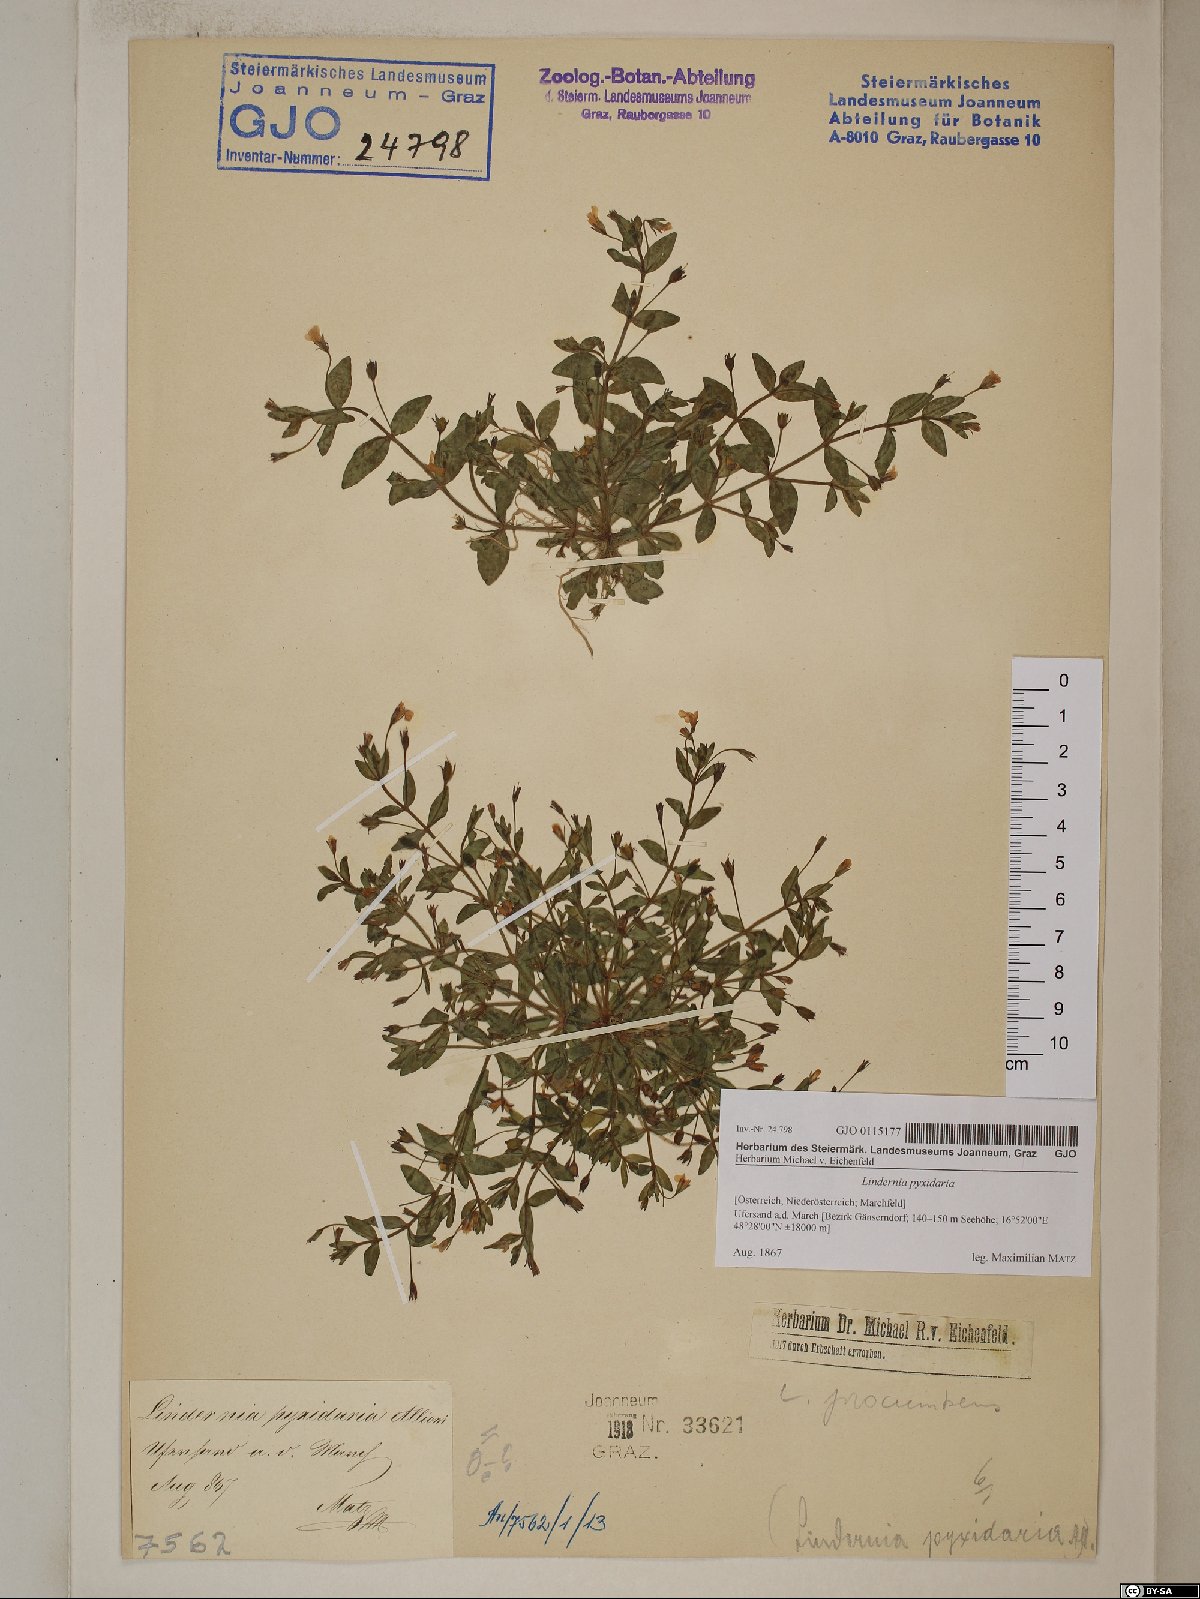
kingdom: Plantae
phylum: Tracheophyta
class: Magnoliopsida
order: Lamiales
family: Linderniaceae
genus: Lindernia
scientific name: Lindernia dubia
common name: Annual false pimpernel
